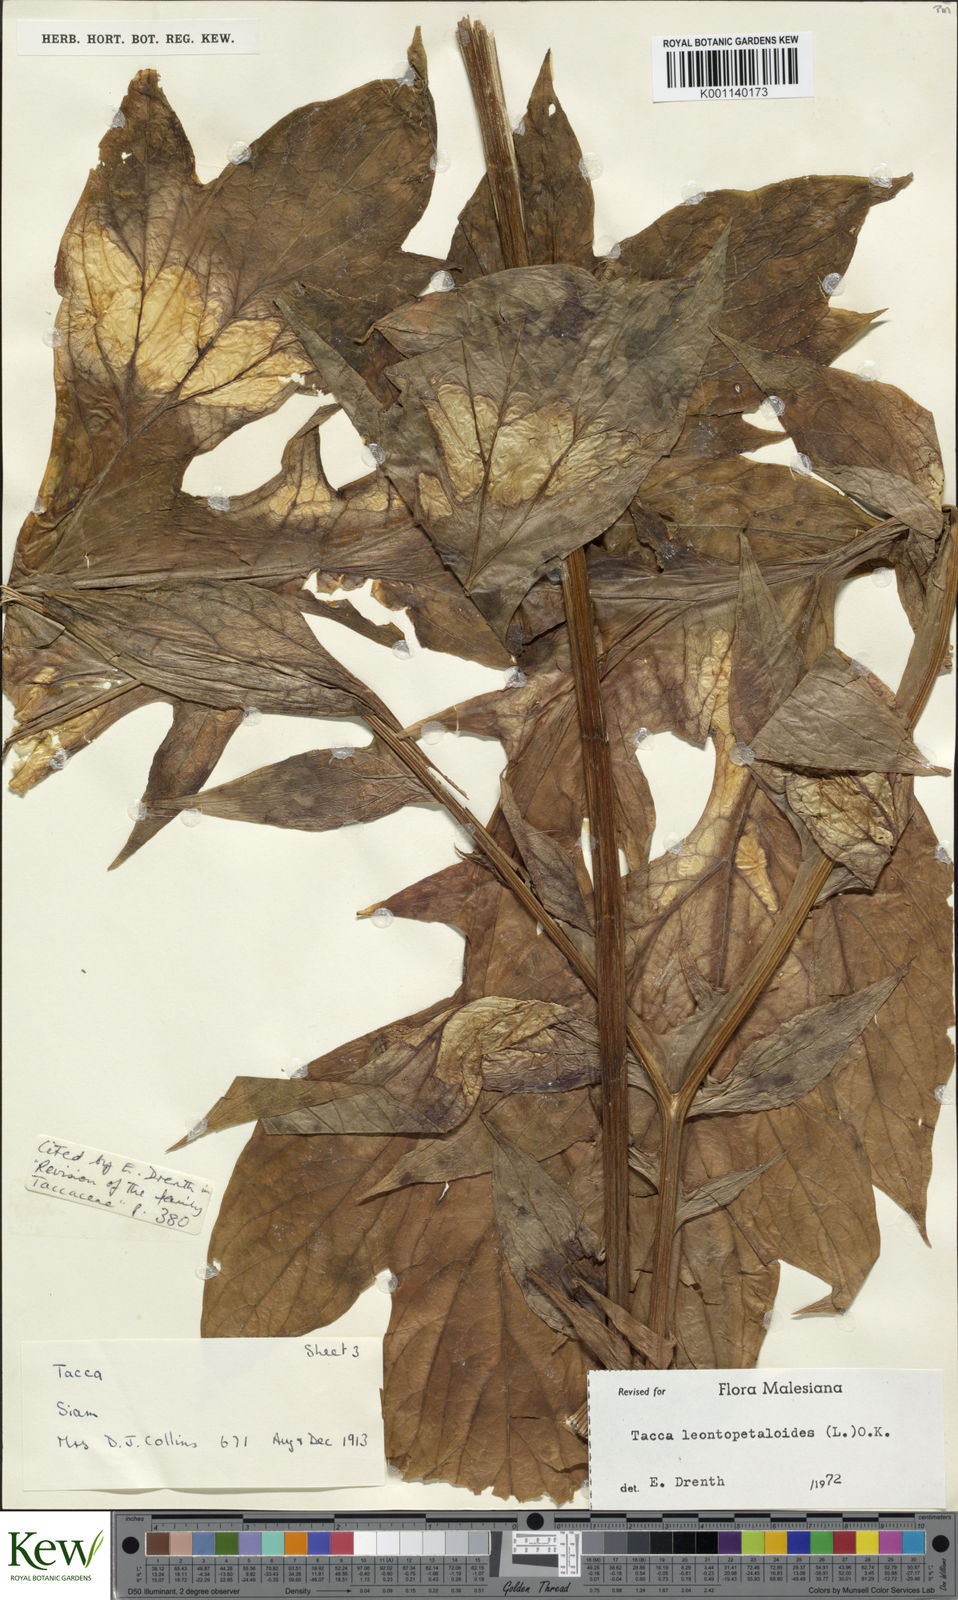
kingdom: Plantae
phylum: Tracheophyta
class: Liliopsida
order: Dioscoreales
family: Dioscoreaceae
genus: Tacca
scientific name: Tacca leontopetaloides
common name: Arrowroot
